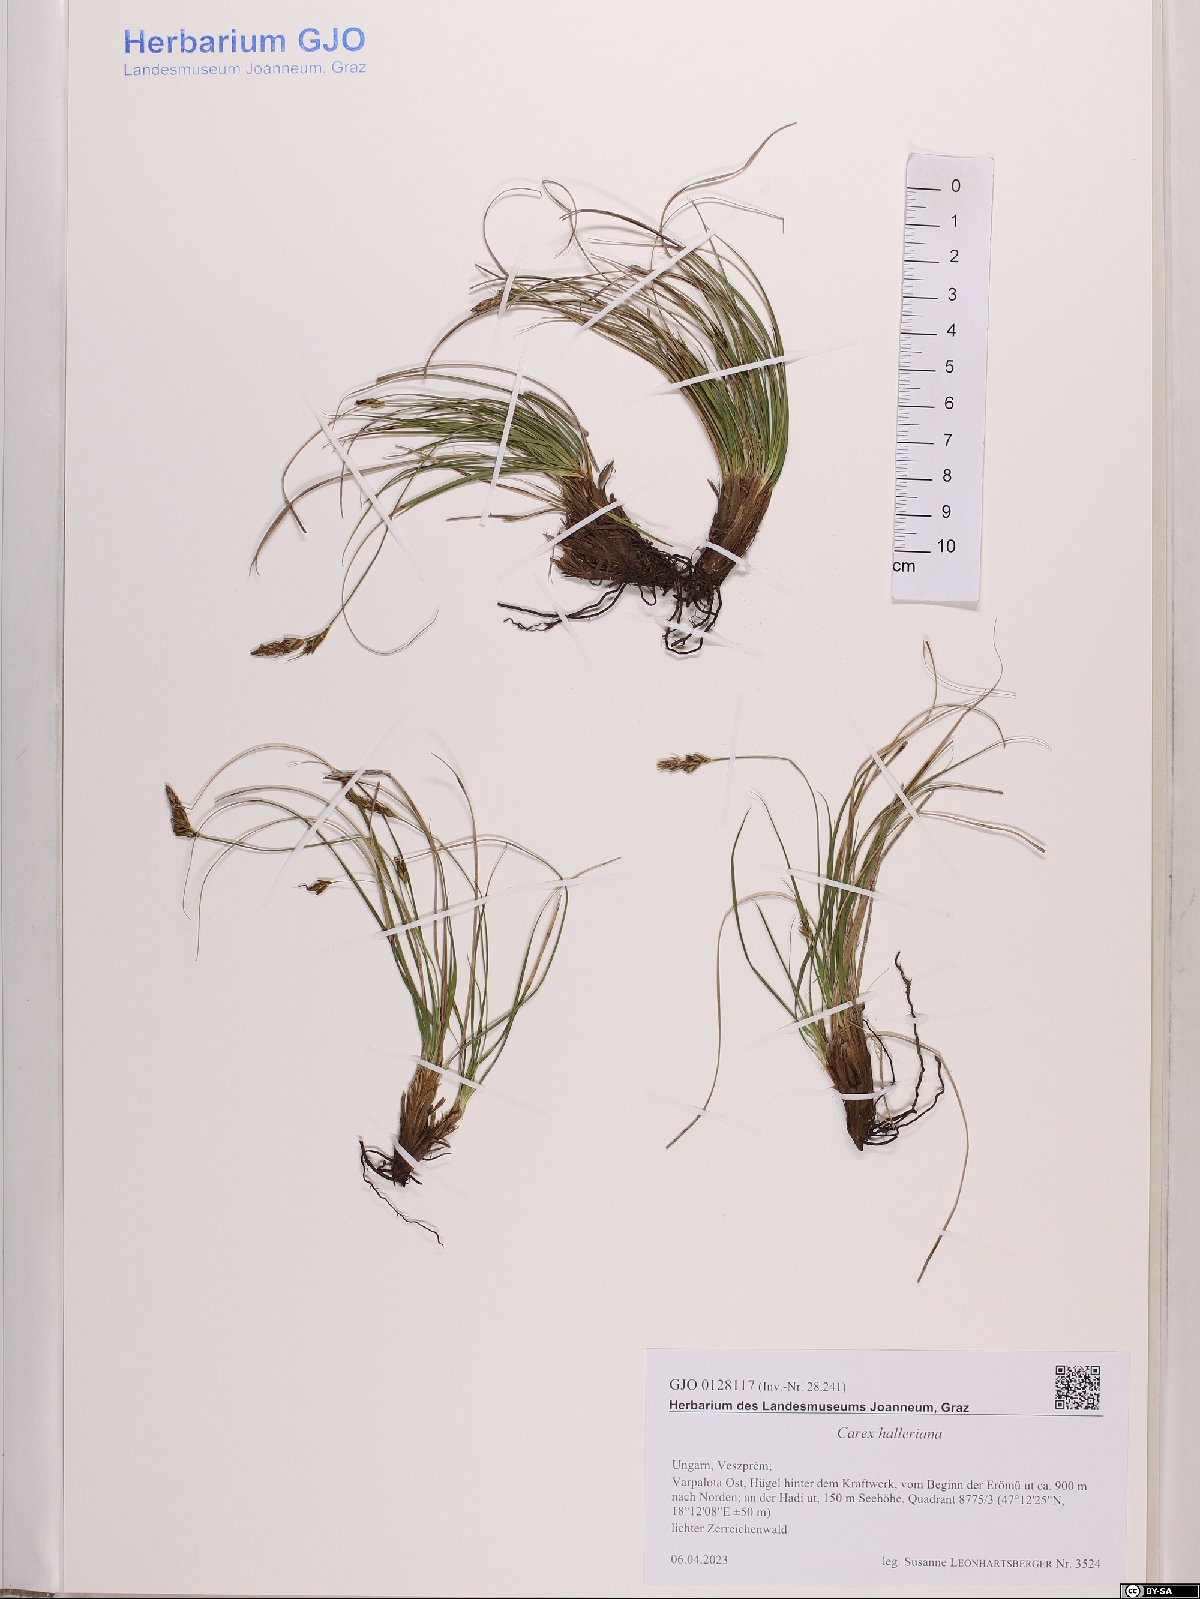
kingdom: Plantae
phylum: Tracheophyta
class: Liliopsida
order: Poales
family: Cyperaceae
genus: Carex
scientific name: Carex halleriana
